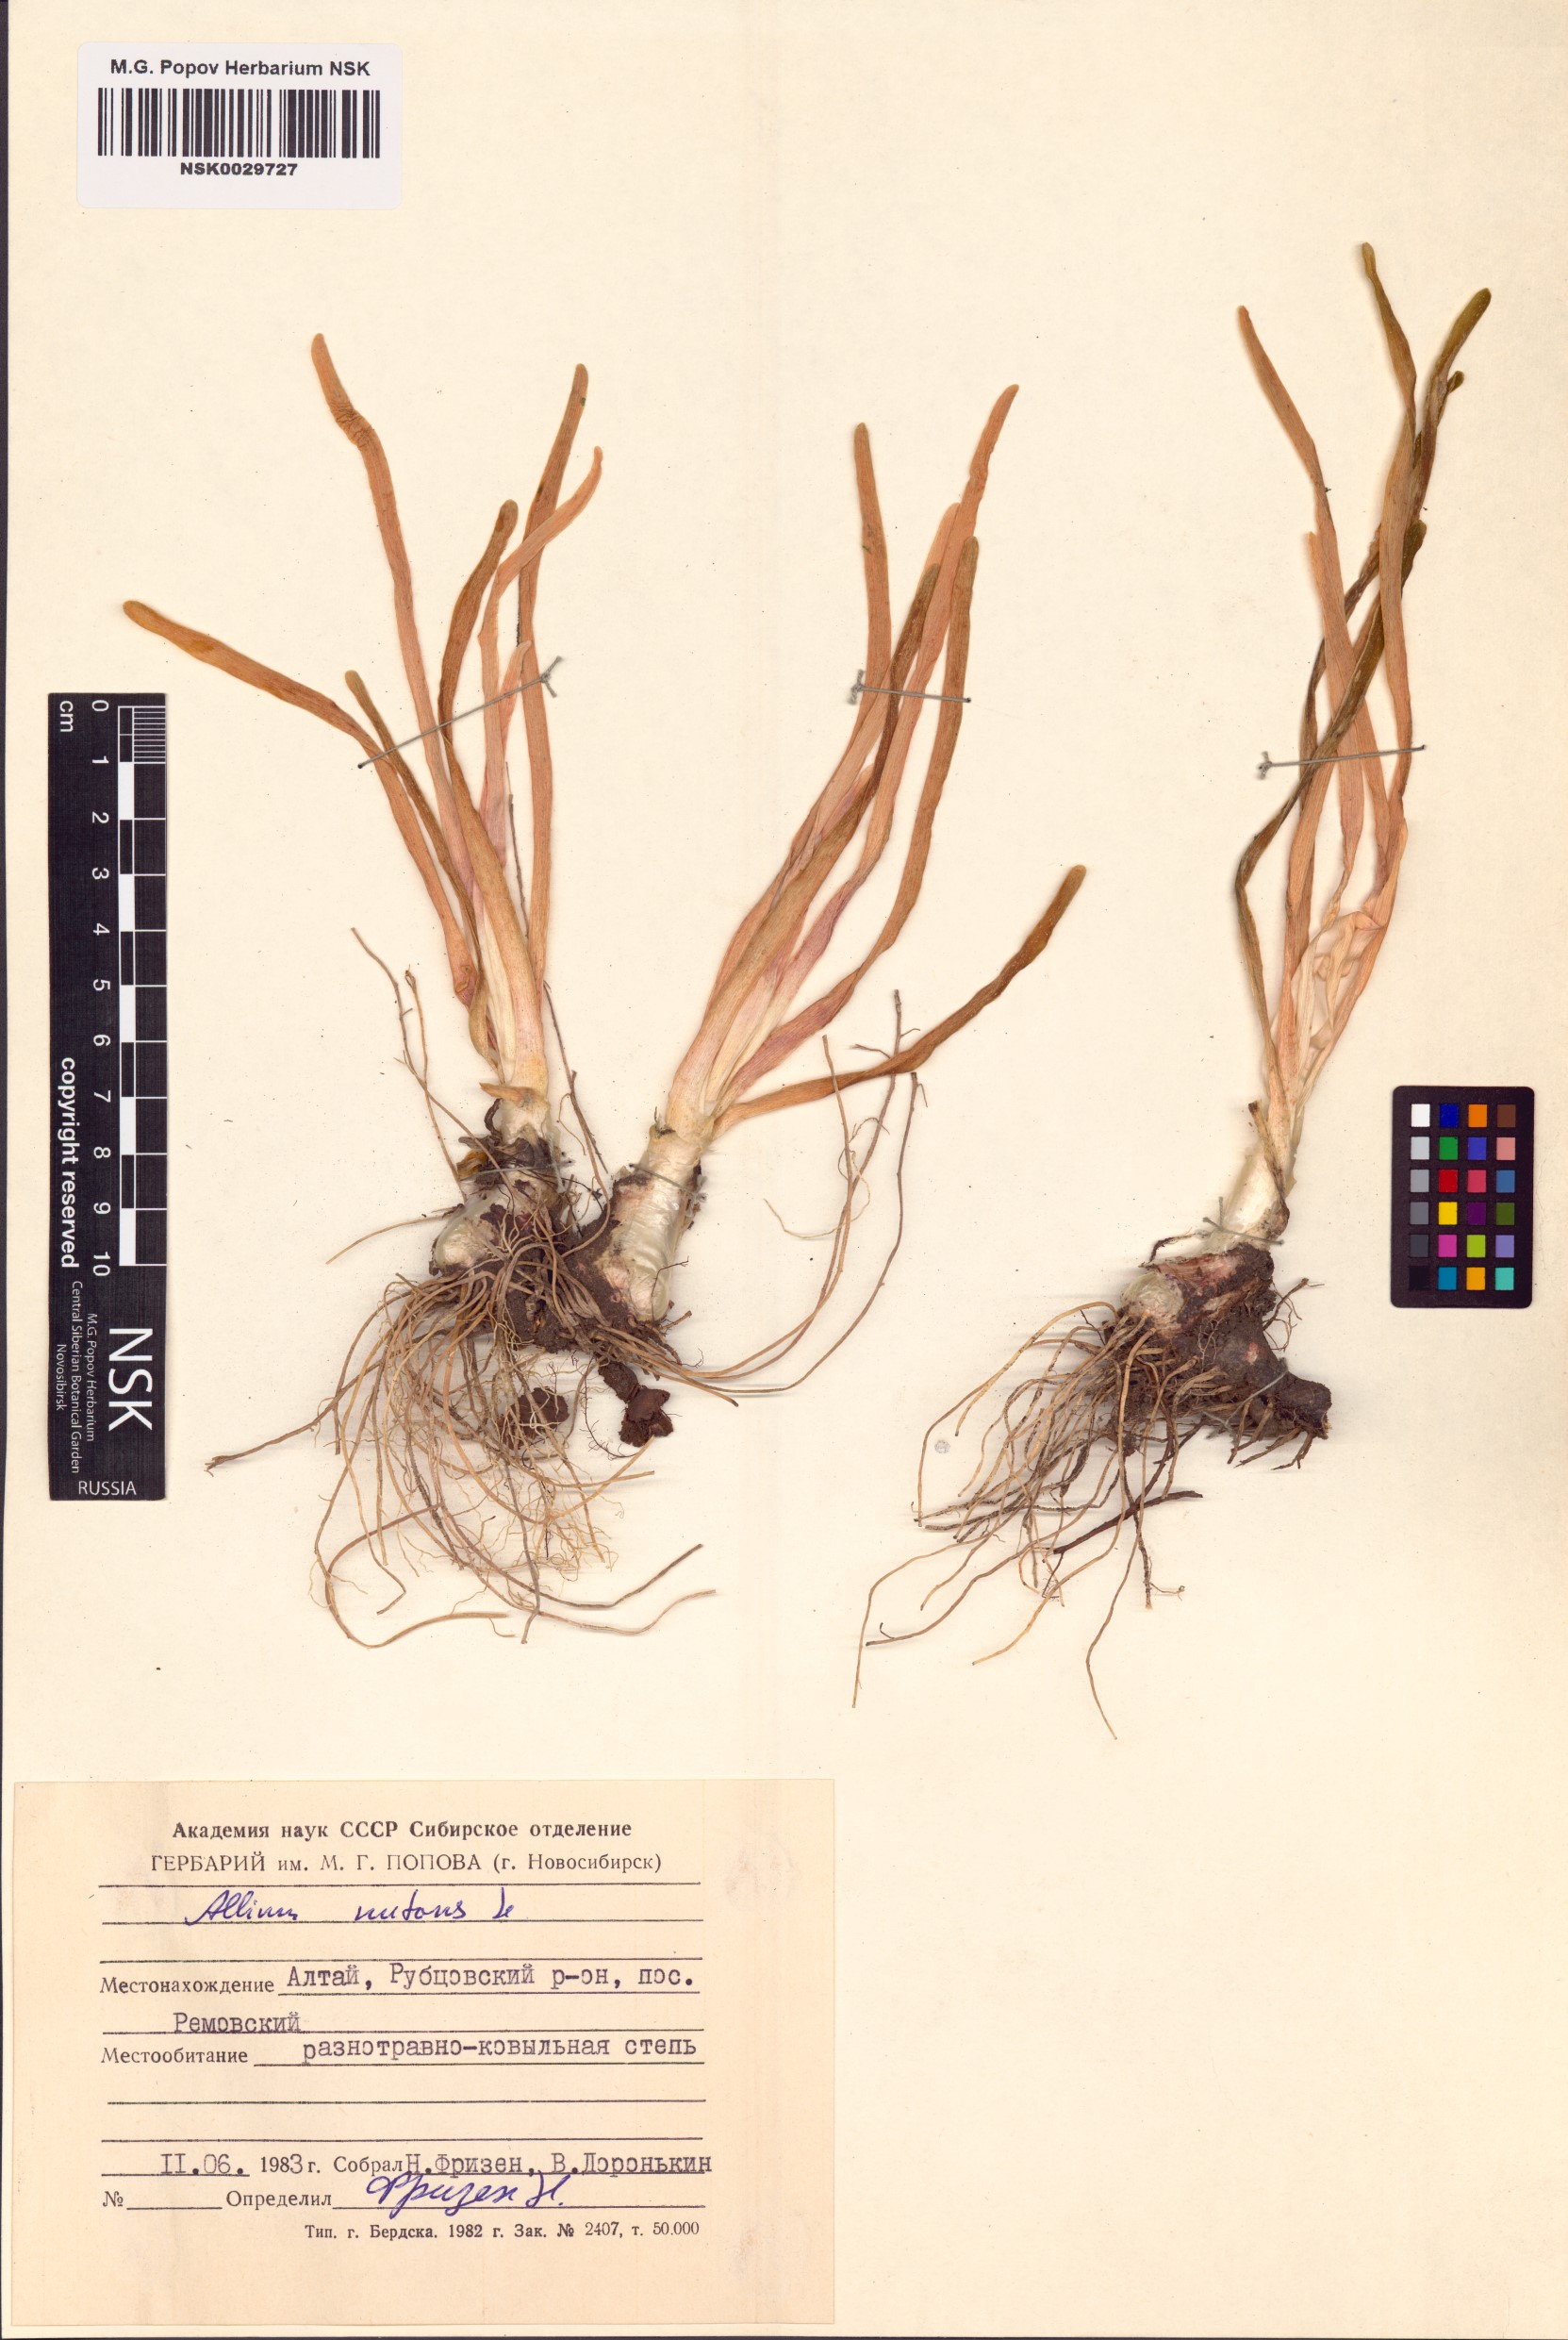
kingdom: Plantae
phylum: Tracheophyta
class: Liliopsida
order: Asparagales
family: Amaryllidaceae
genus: Allium
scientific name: Allium nutans
